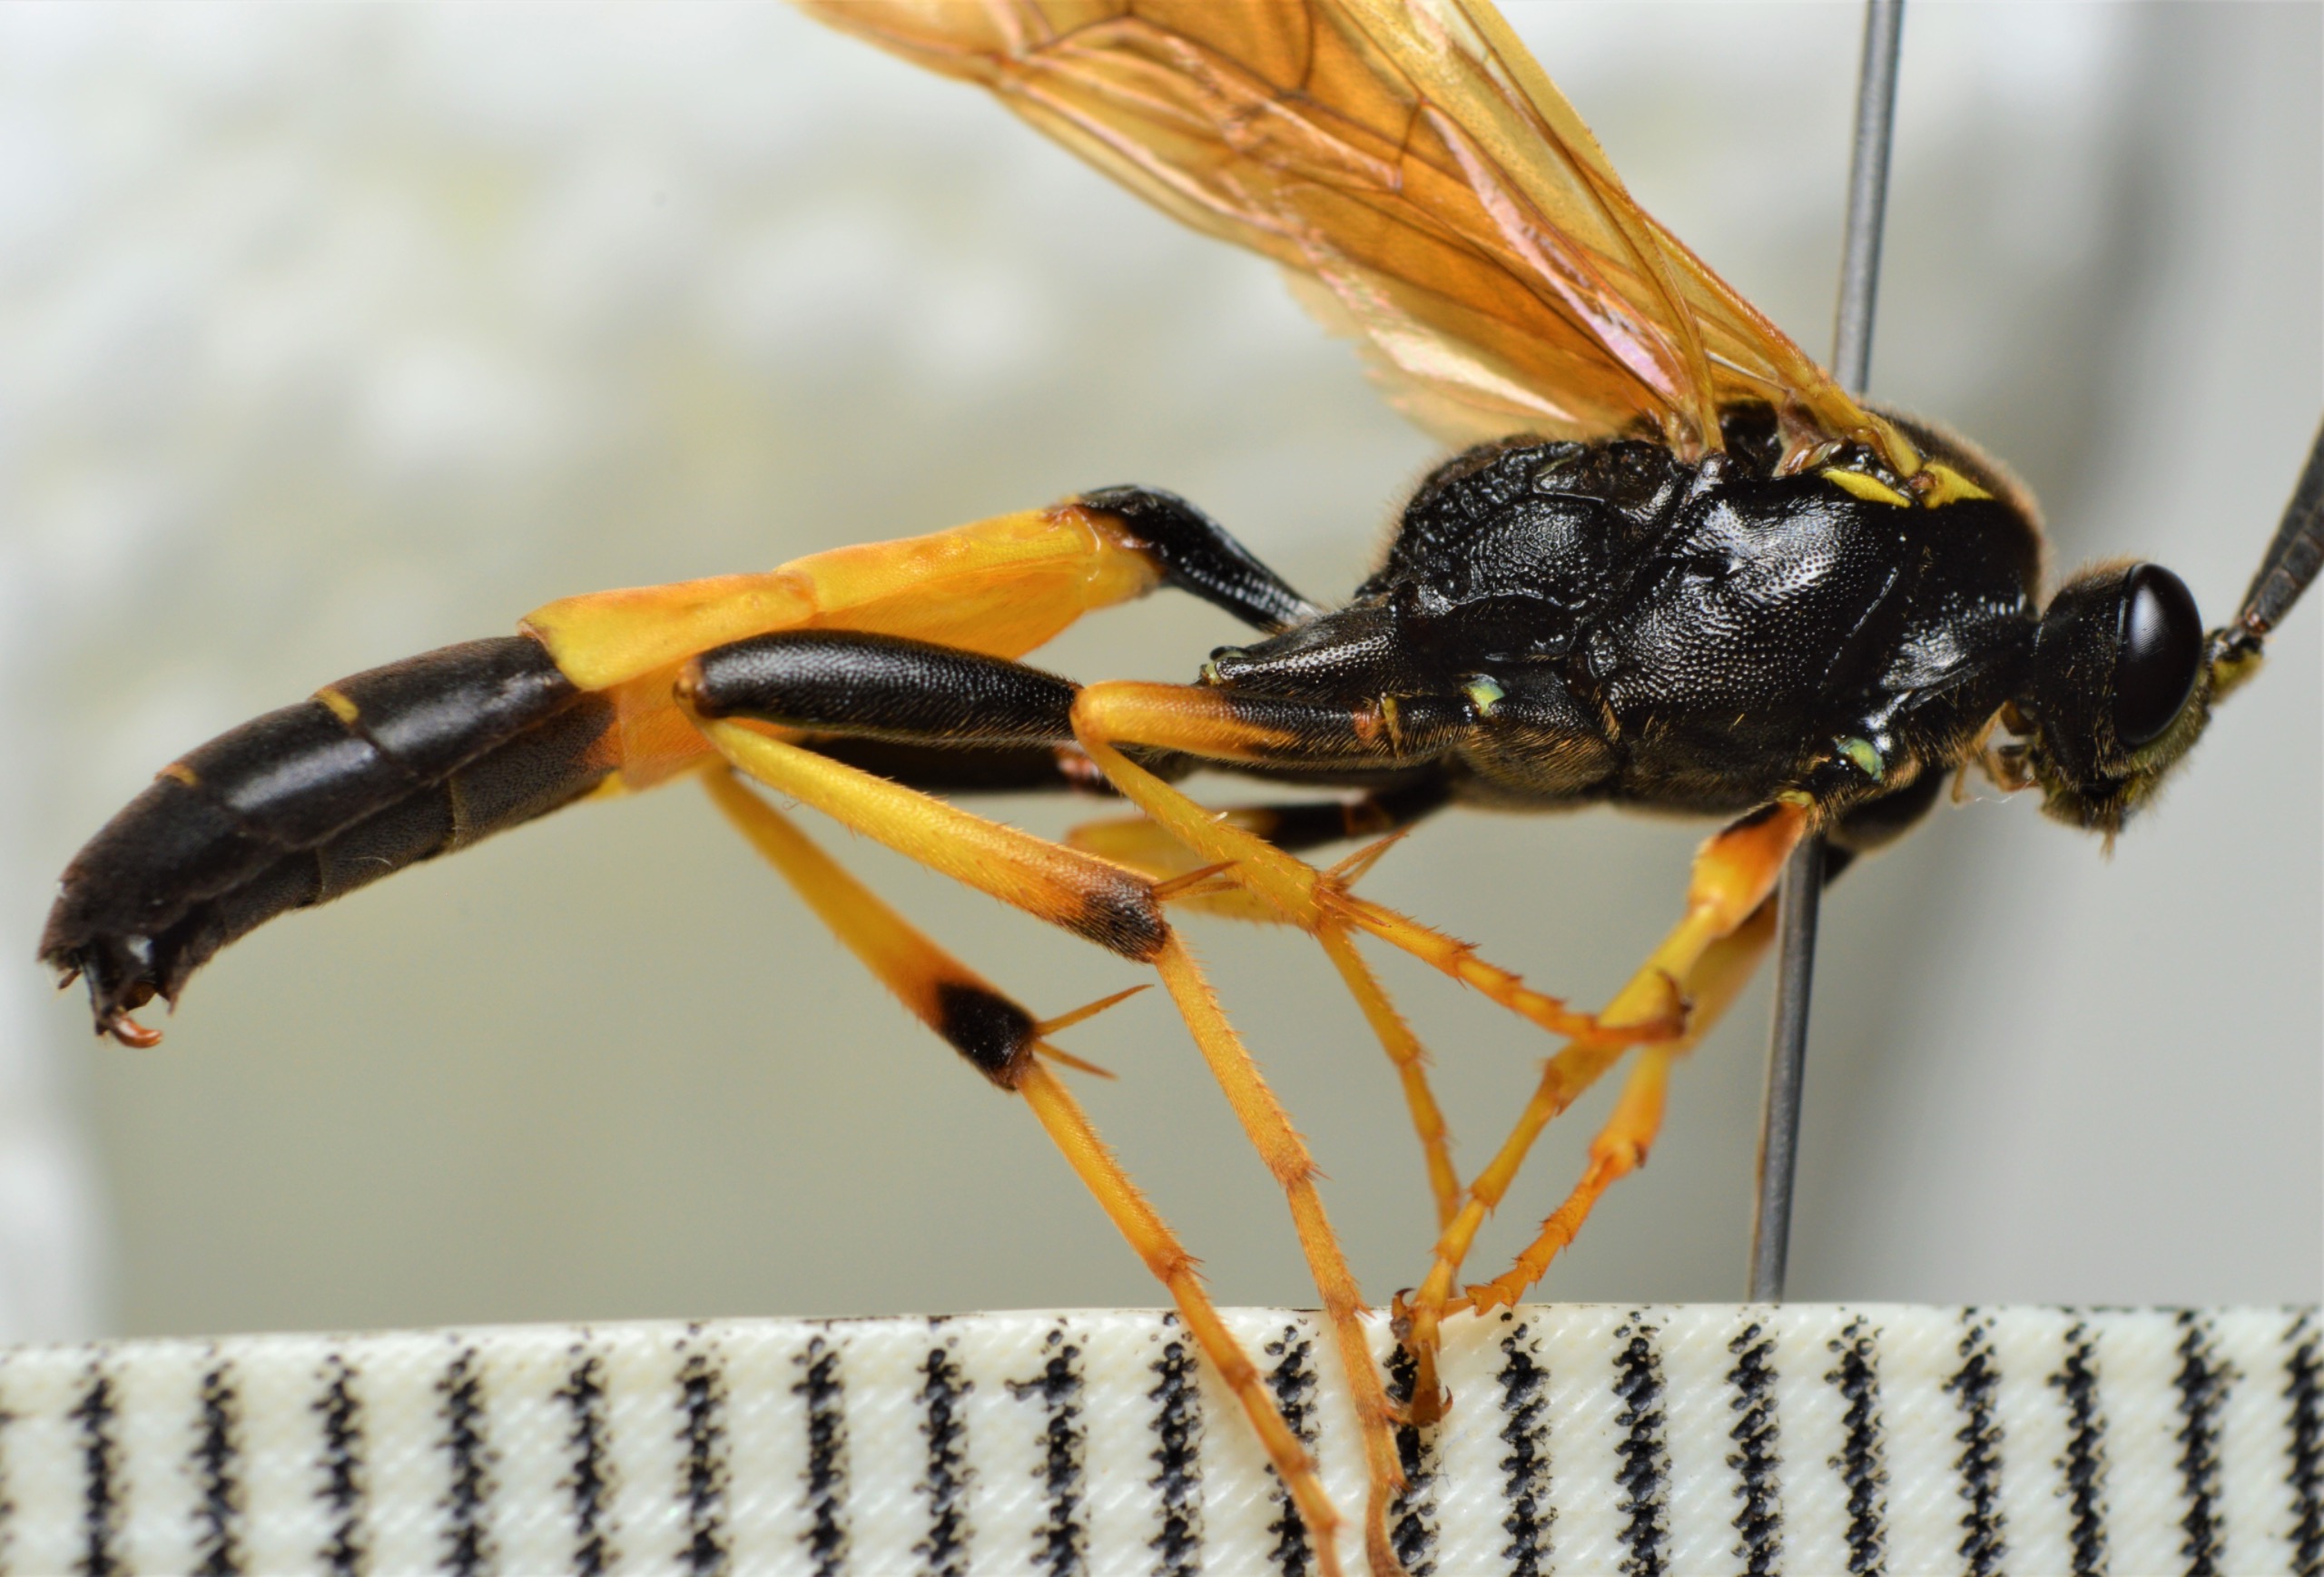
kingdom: Animalia
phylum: Arthropoda
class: Insecta
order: Hymenoptera
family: Ichneumonidae
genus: Diphyus
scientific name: Diphyus amatorius
